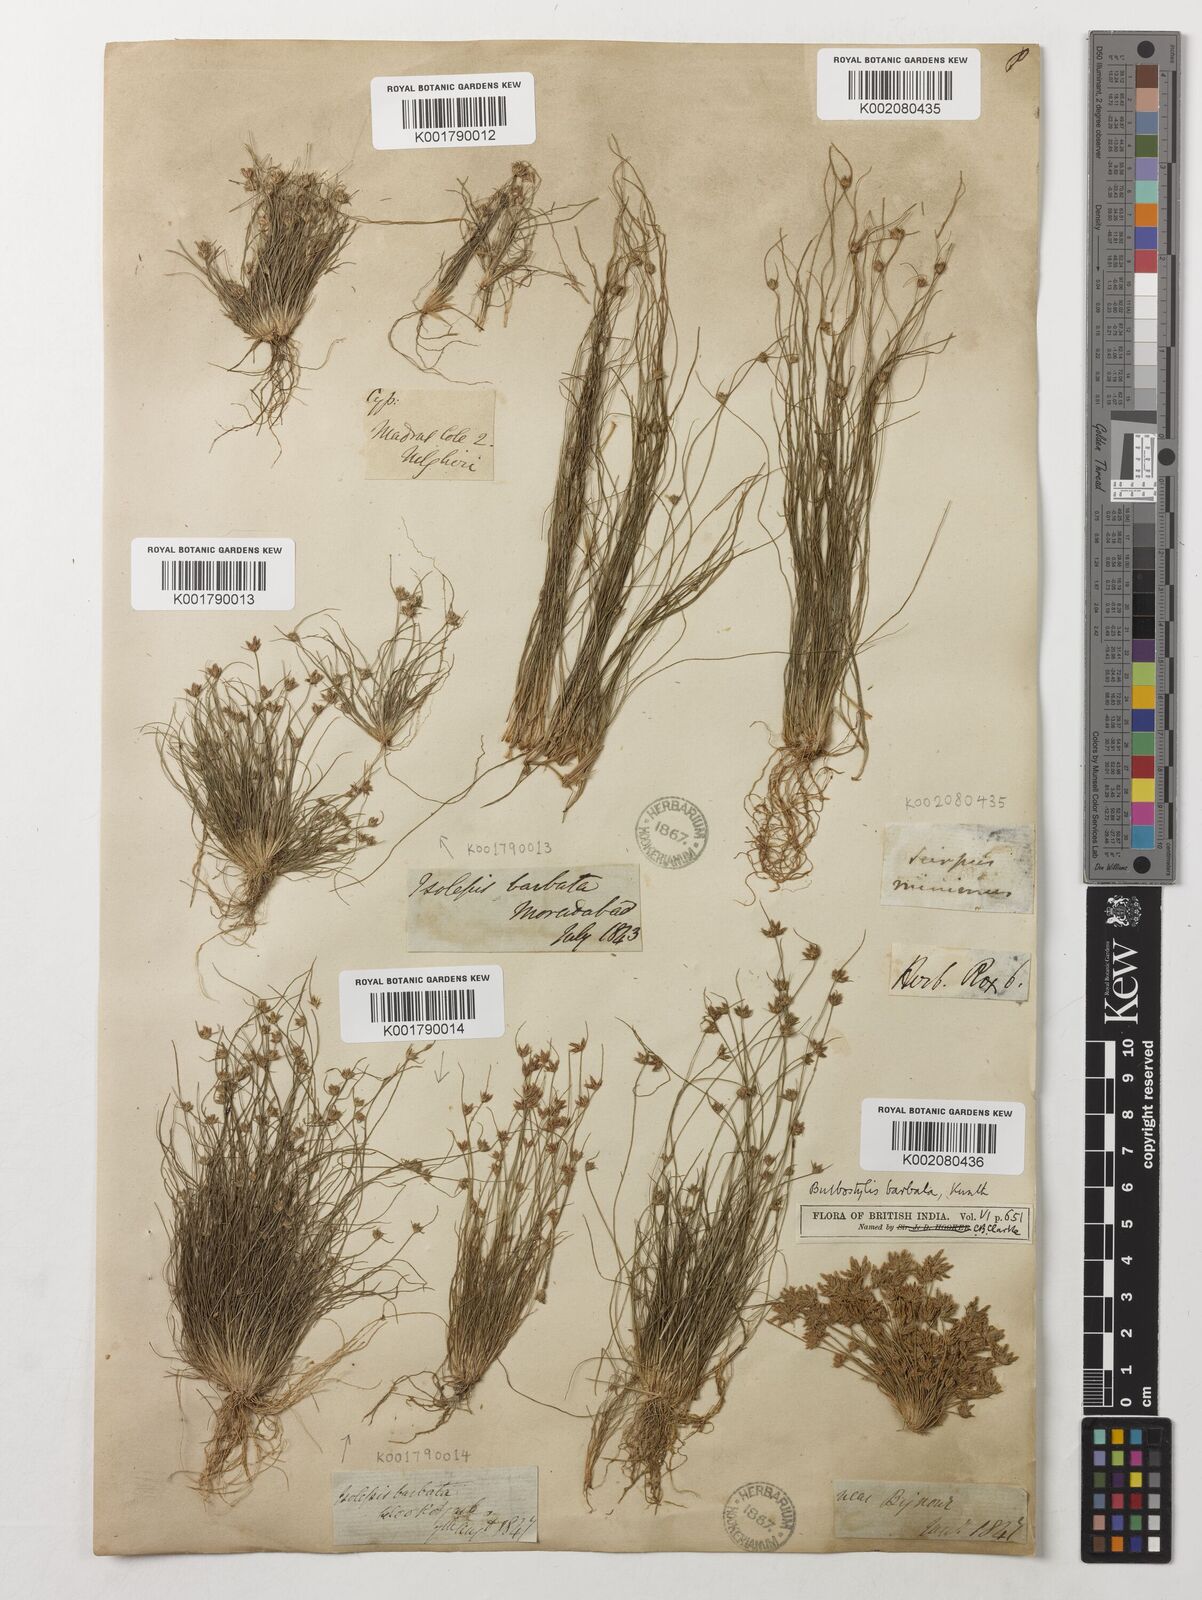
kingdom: Plantae
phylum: Tracheophyta
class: Liliopsida
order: Poales
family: Cyperaceae
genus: Bulbostylis
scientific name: Bulbostylis barbata
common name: Watergrass
